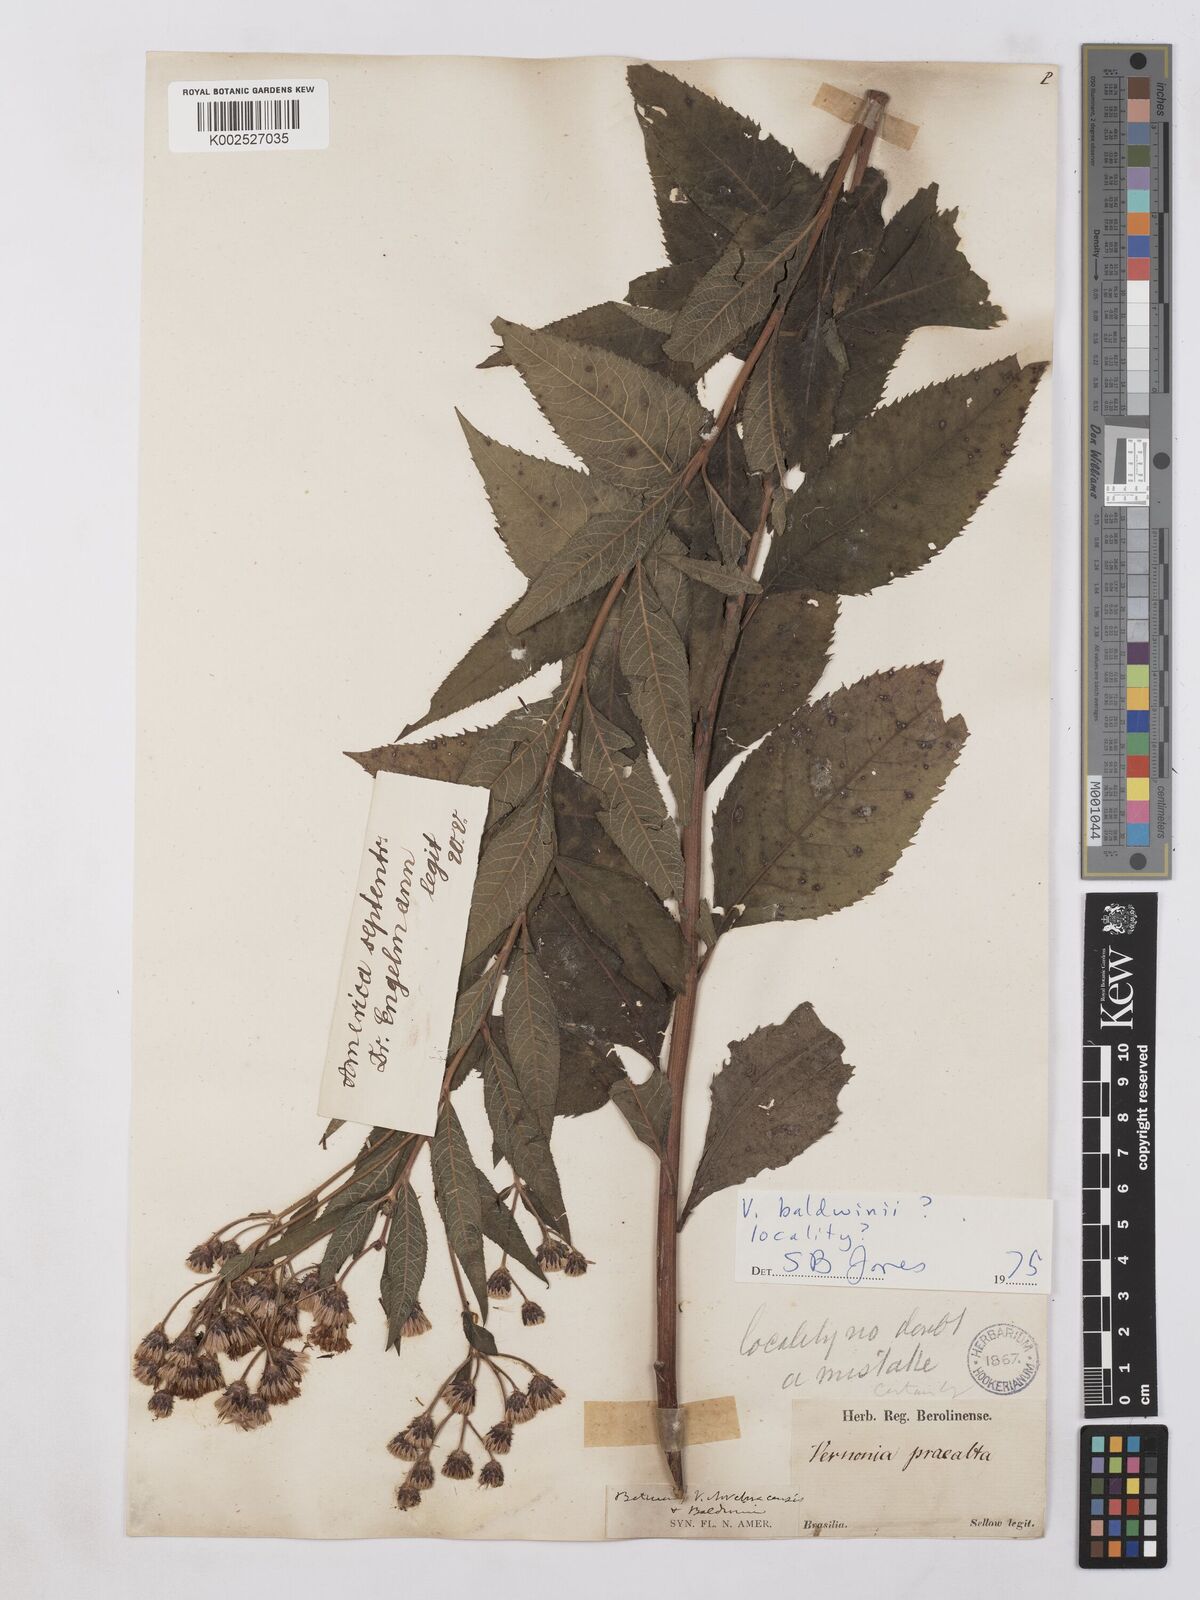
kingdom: Plantae
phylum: Tracheophyta
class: Magnoliopsida
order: Asterales
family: Asteraceae
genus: Vernonia
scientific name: Vernonia noveboracensis
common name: New york ironweed
